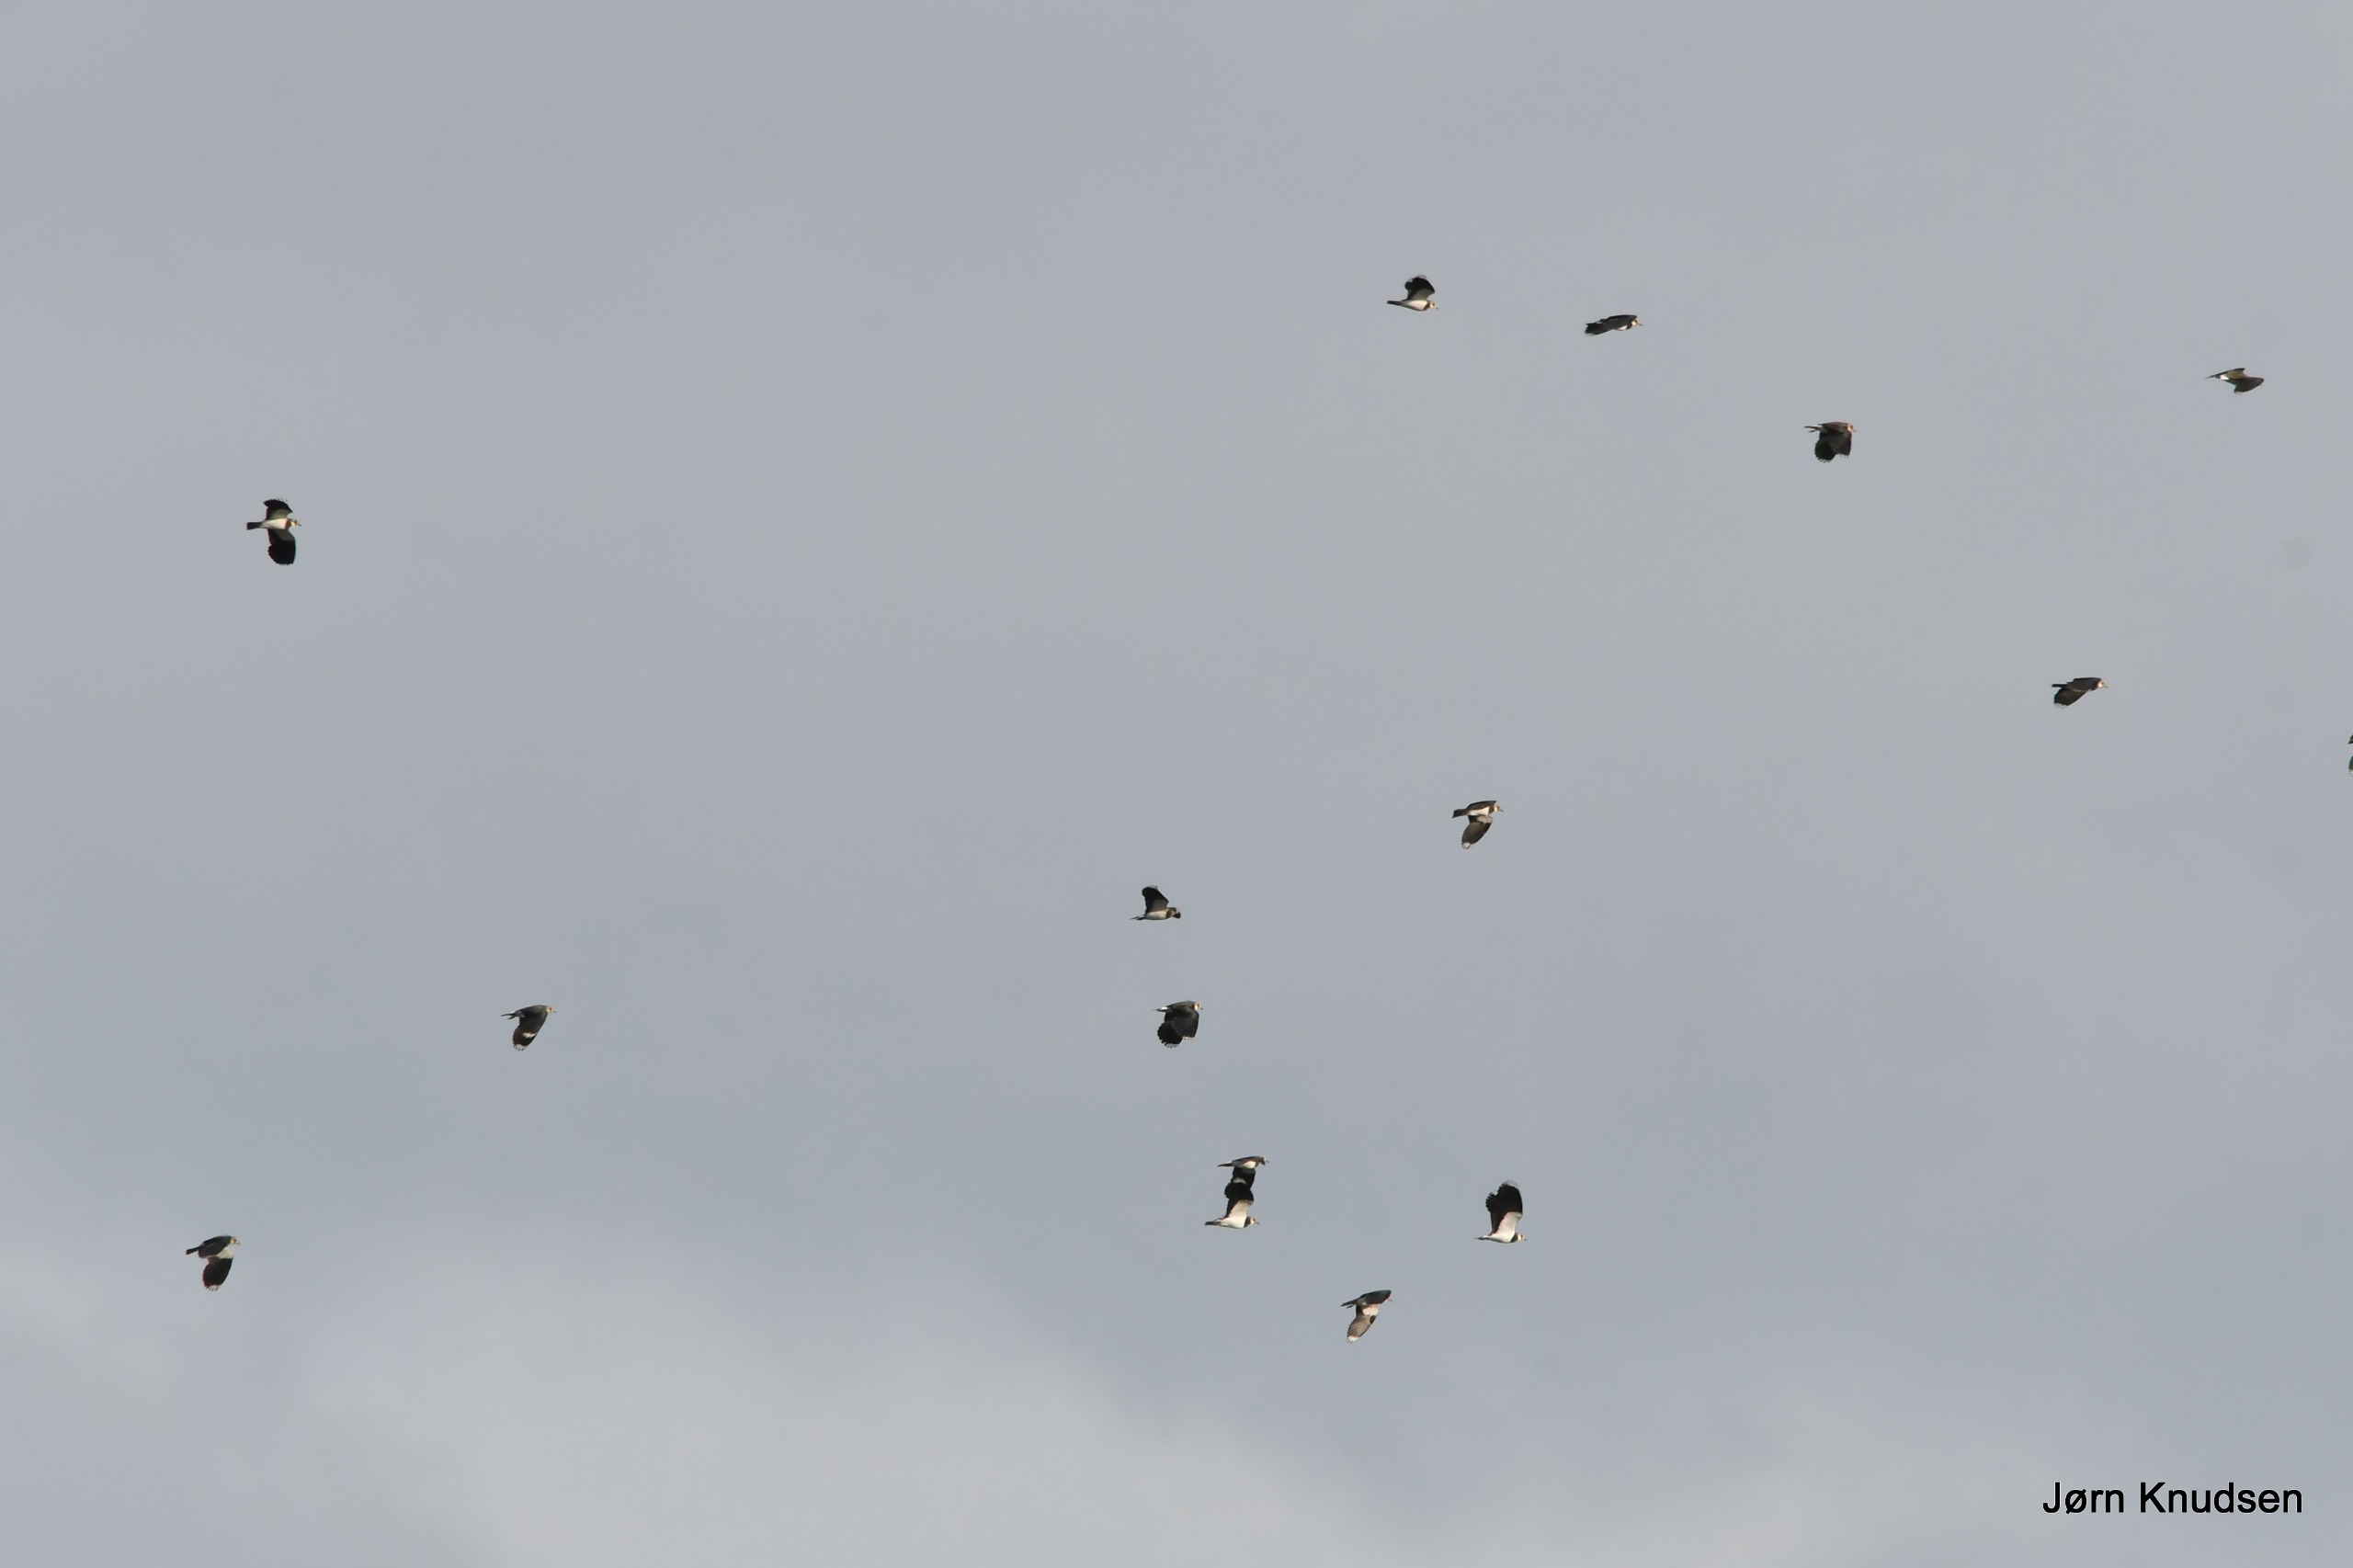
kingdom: Animalia
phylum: Chordata
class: Aves
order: Charadriiformes
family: Charadriidae
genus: Vanellus
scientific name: Vanellus vanellus
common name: Vibe
